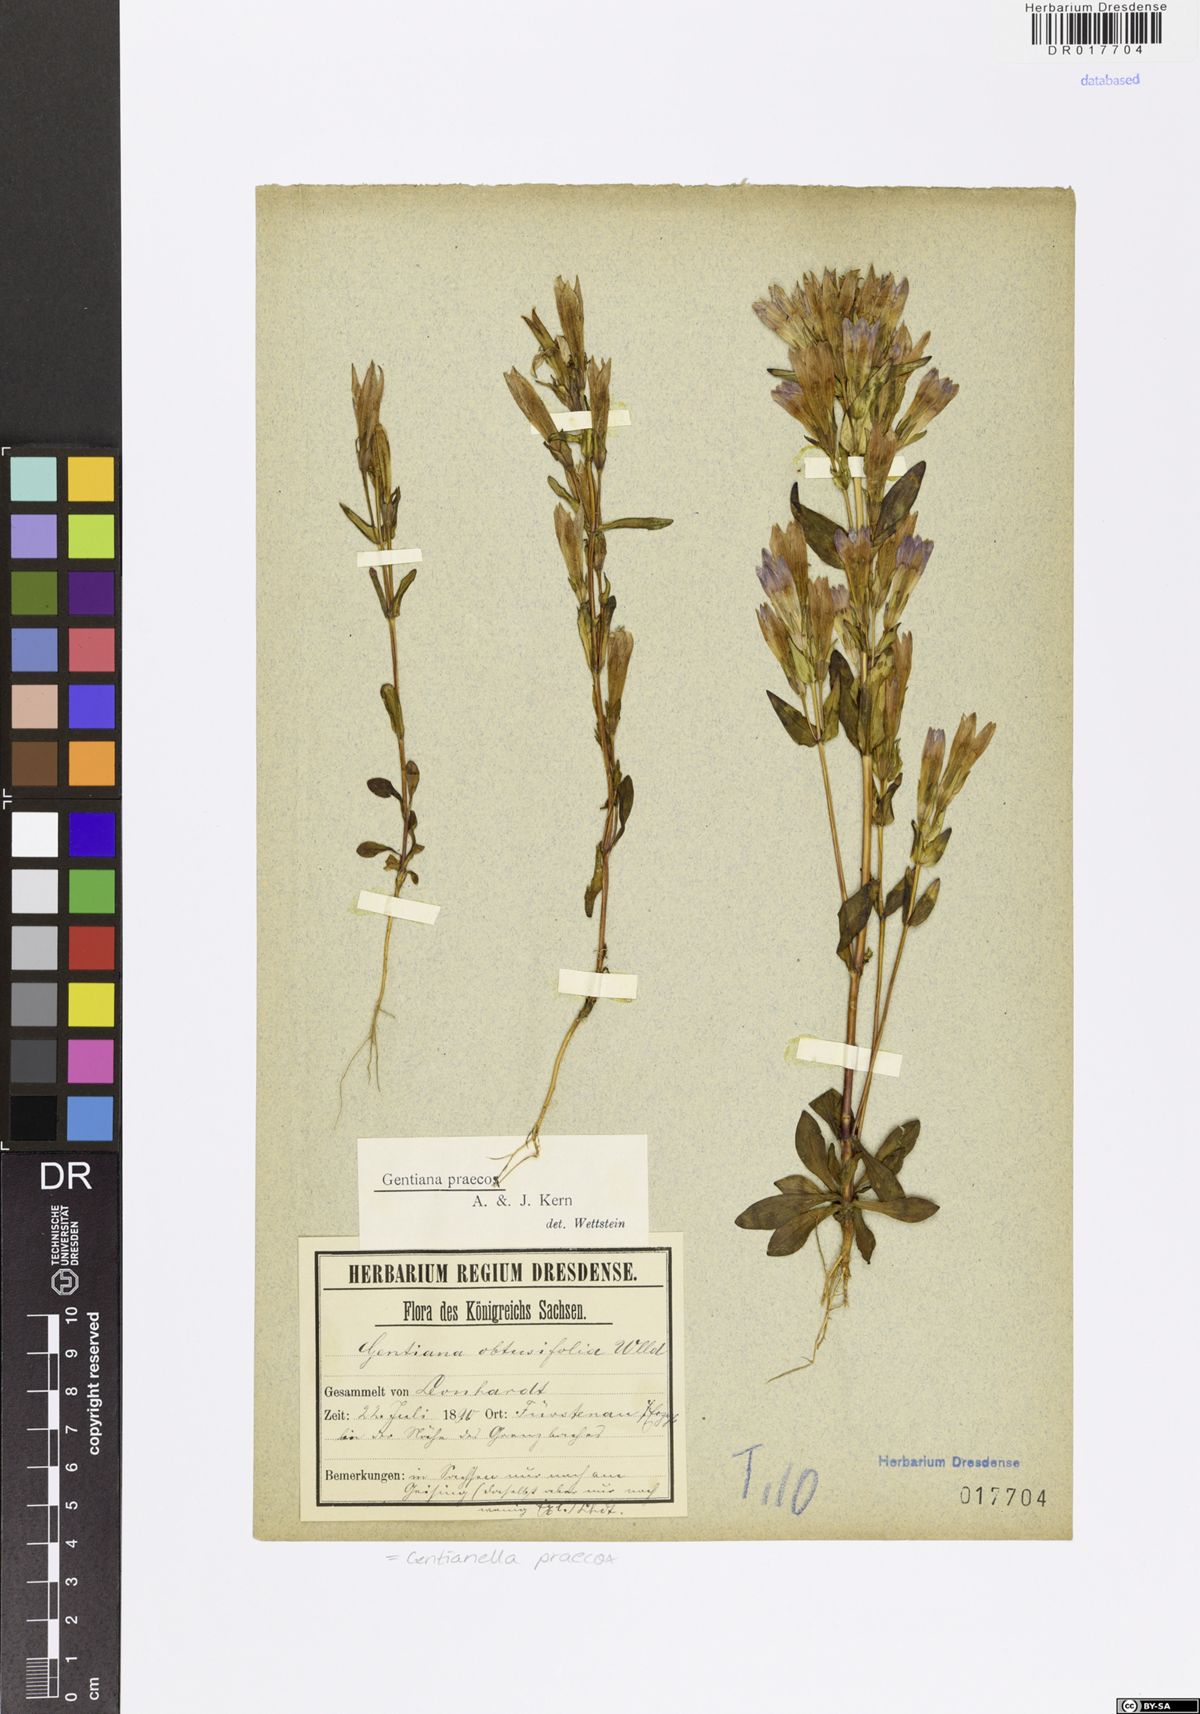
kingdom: Plantae
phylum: Tracheophyta
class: Magnoliopsida
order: Gentianales
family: Gentianaceae
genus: Gentianella
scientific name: Gentianella praecox
